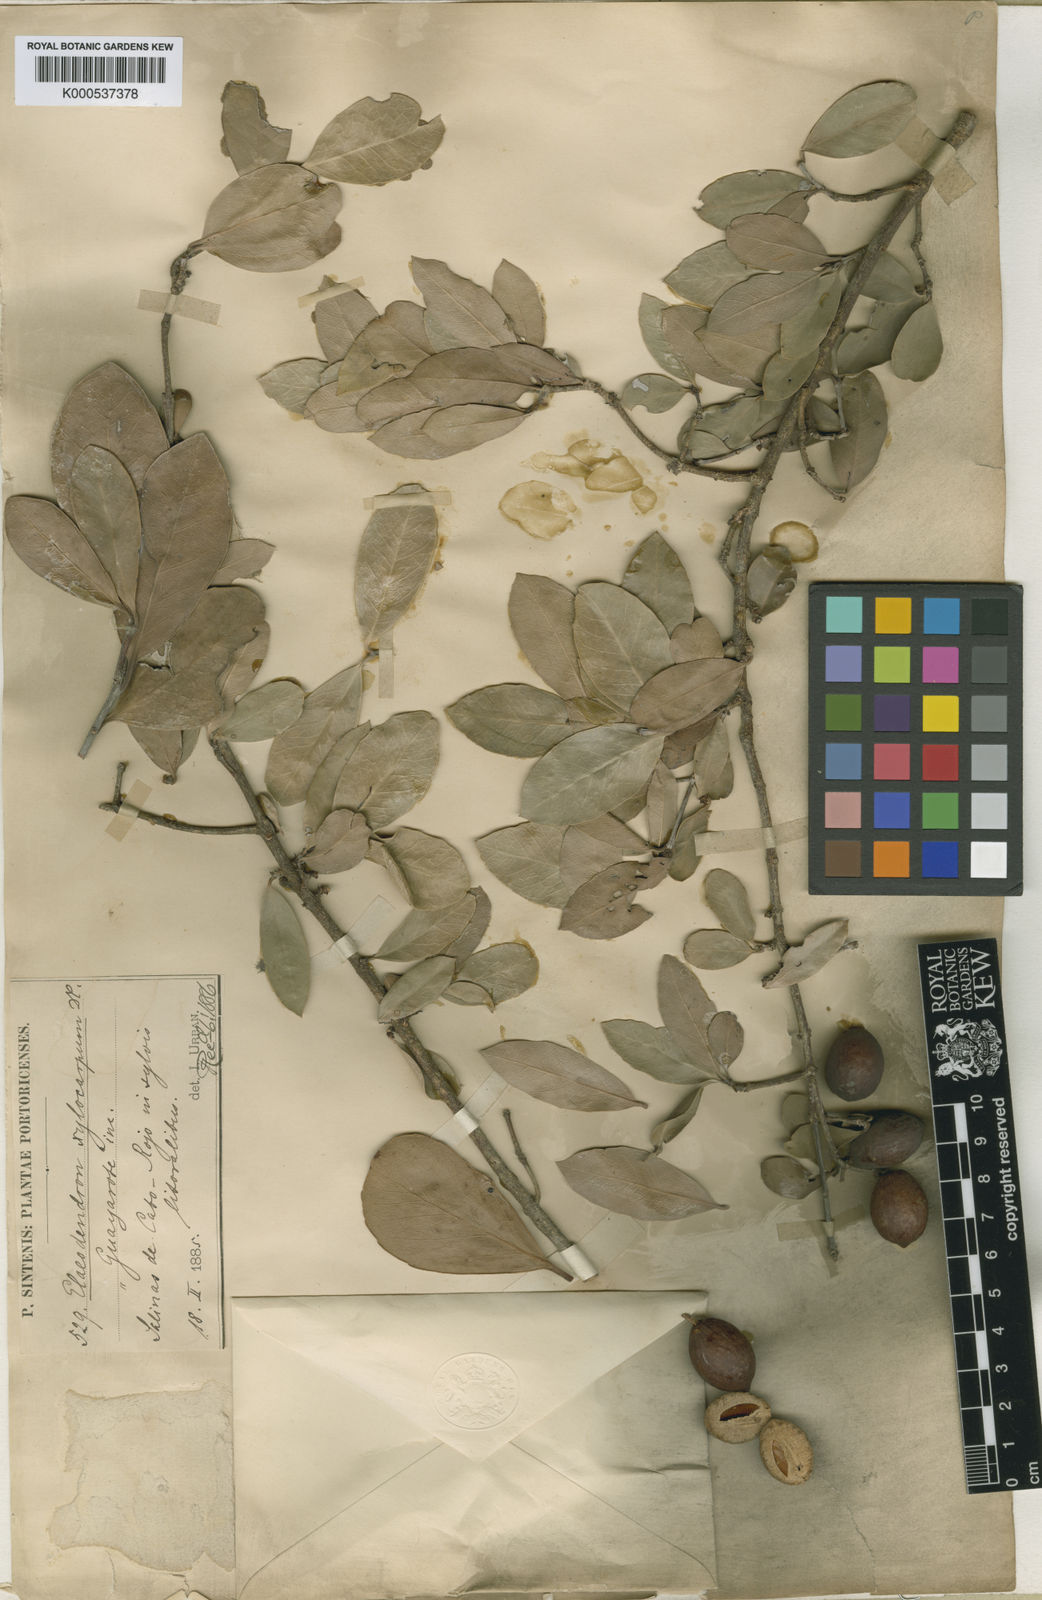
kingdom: Plantae
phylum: Tracheophyta
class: Magnoliopsida
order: Celastrales
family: Celastraceae
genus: Elaeodendron
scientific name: Elaeodendron xylocarpum
